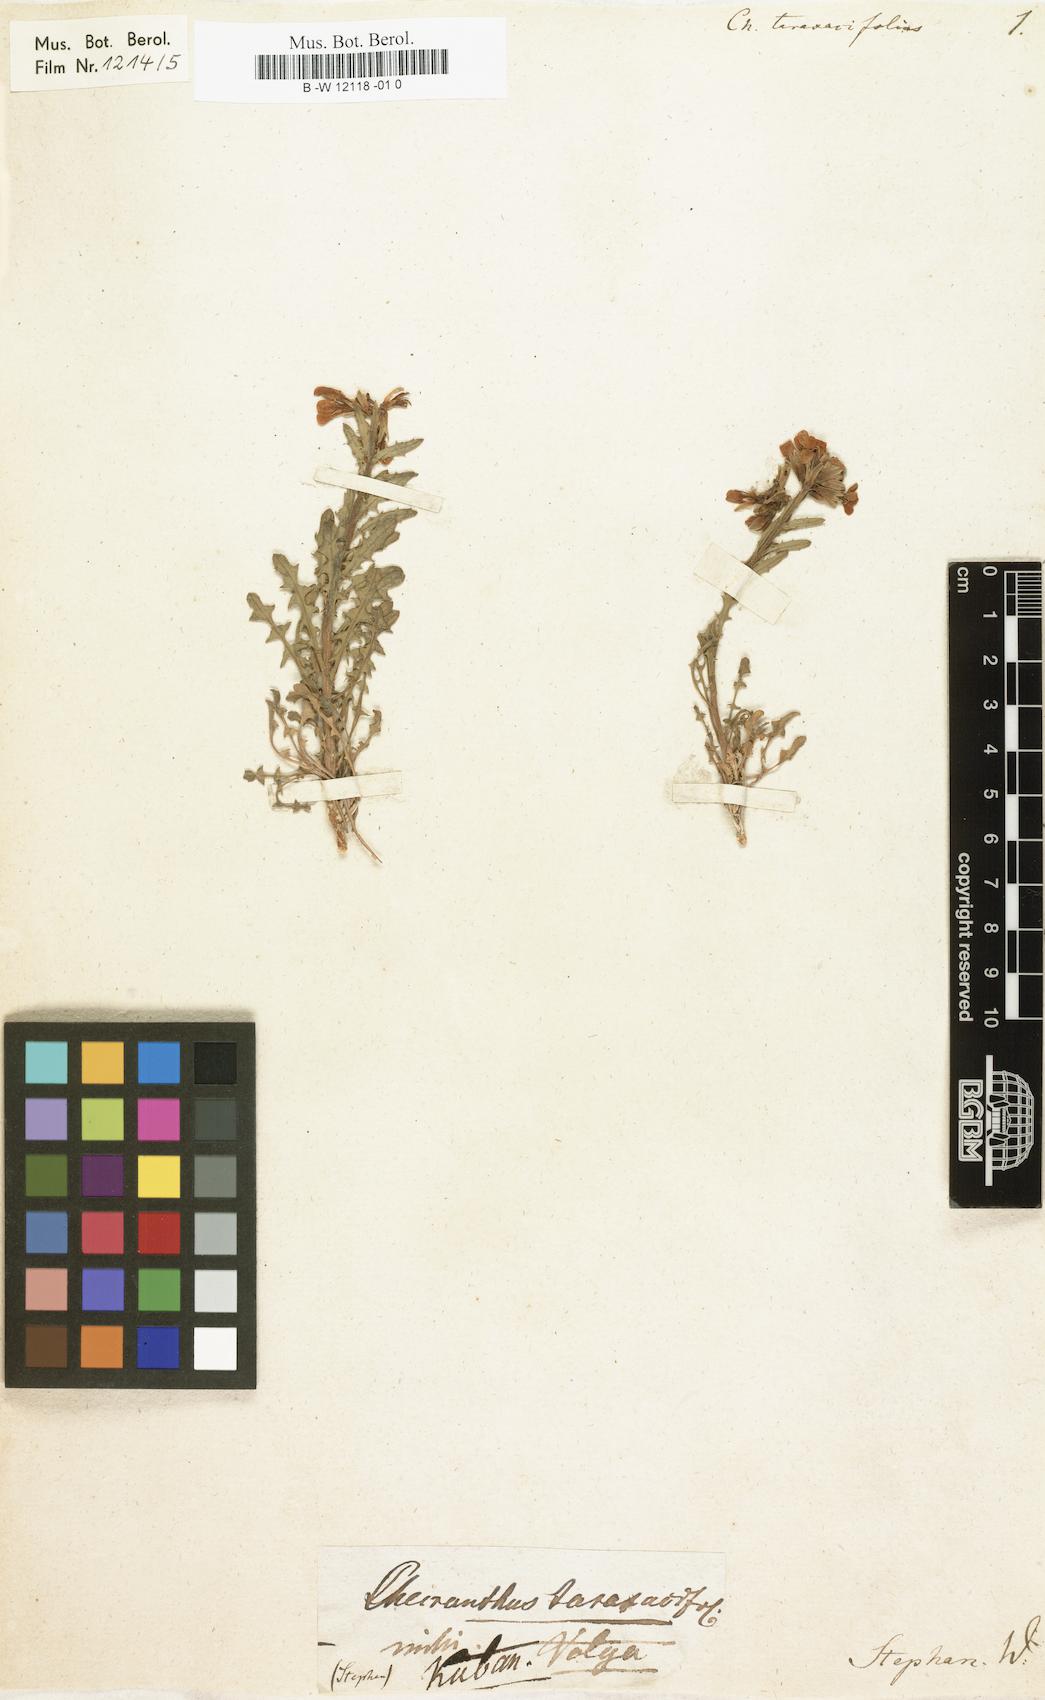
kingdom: Plantae
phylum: Tracheophyta
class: Magnoliopsida
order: Brassicales
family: Brassicaceae
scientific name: Brassicaceae
